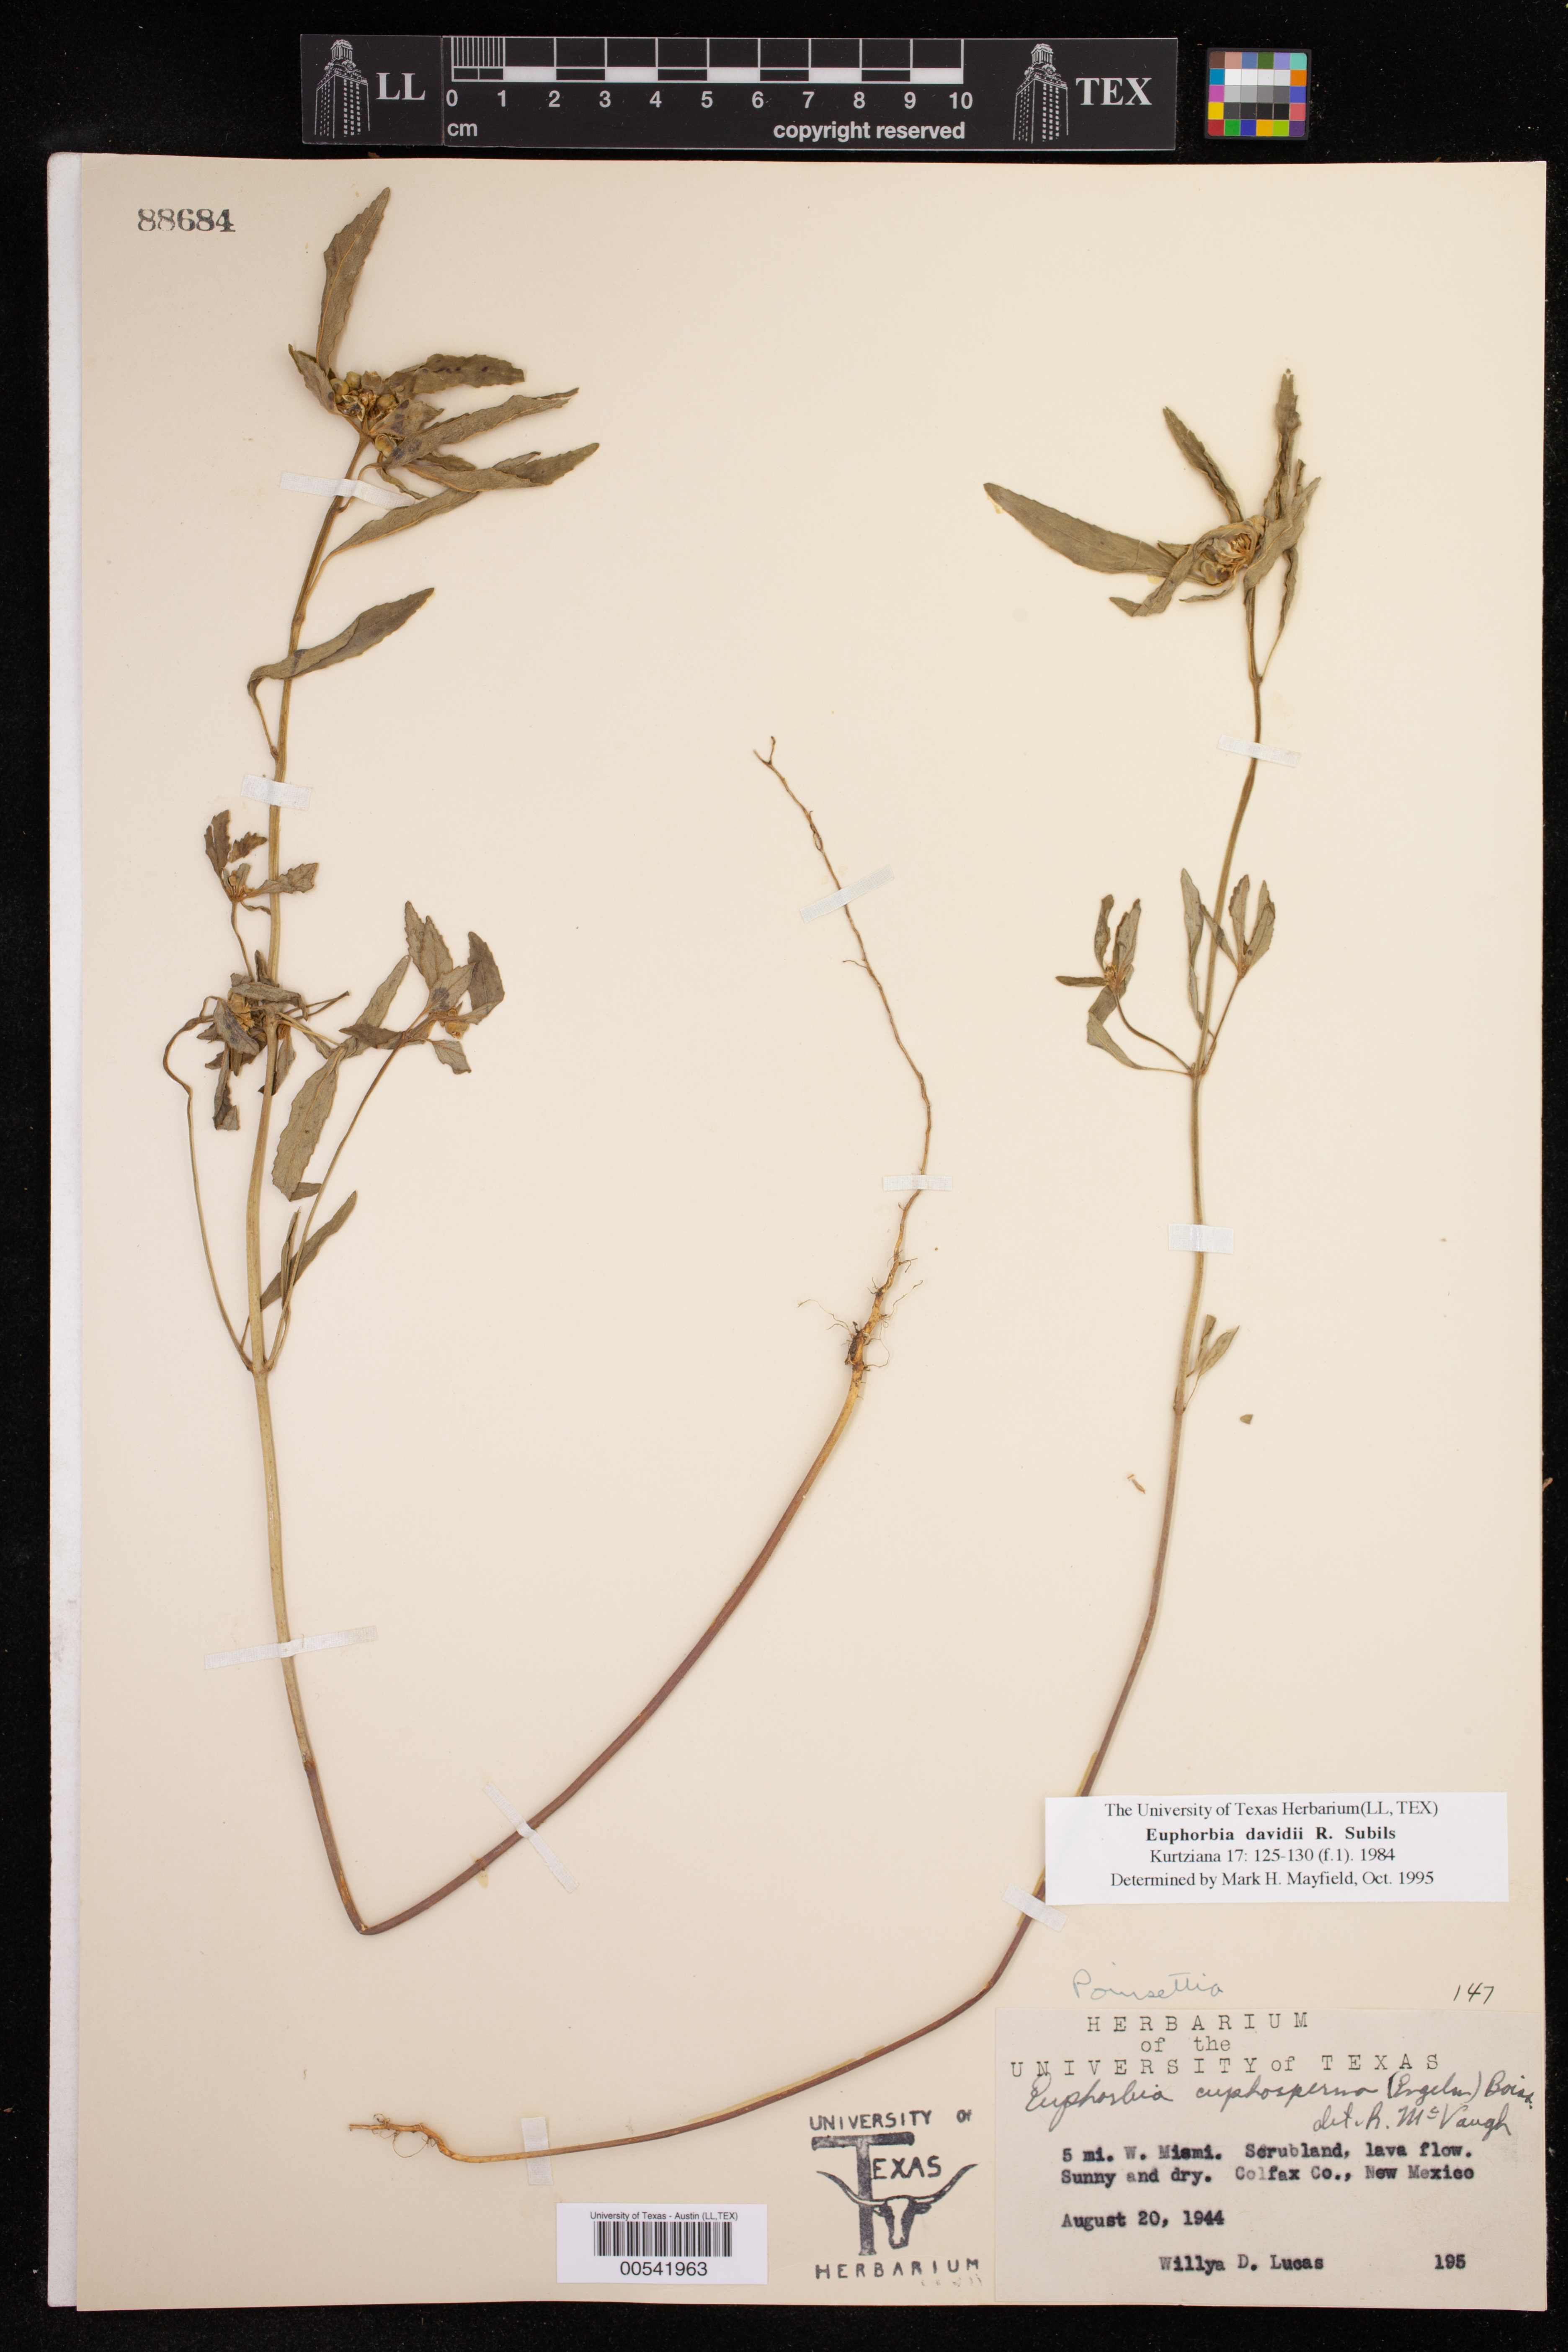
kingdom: Plantae
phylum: Tracheophyta
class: Magnoliopsida
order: Malpighiales
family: Euphorbiaceae
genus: Euphorbia
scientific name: Euphorbia davidii
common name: David's spurge
